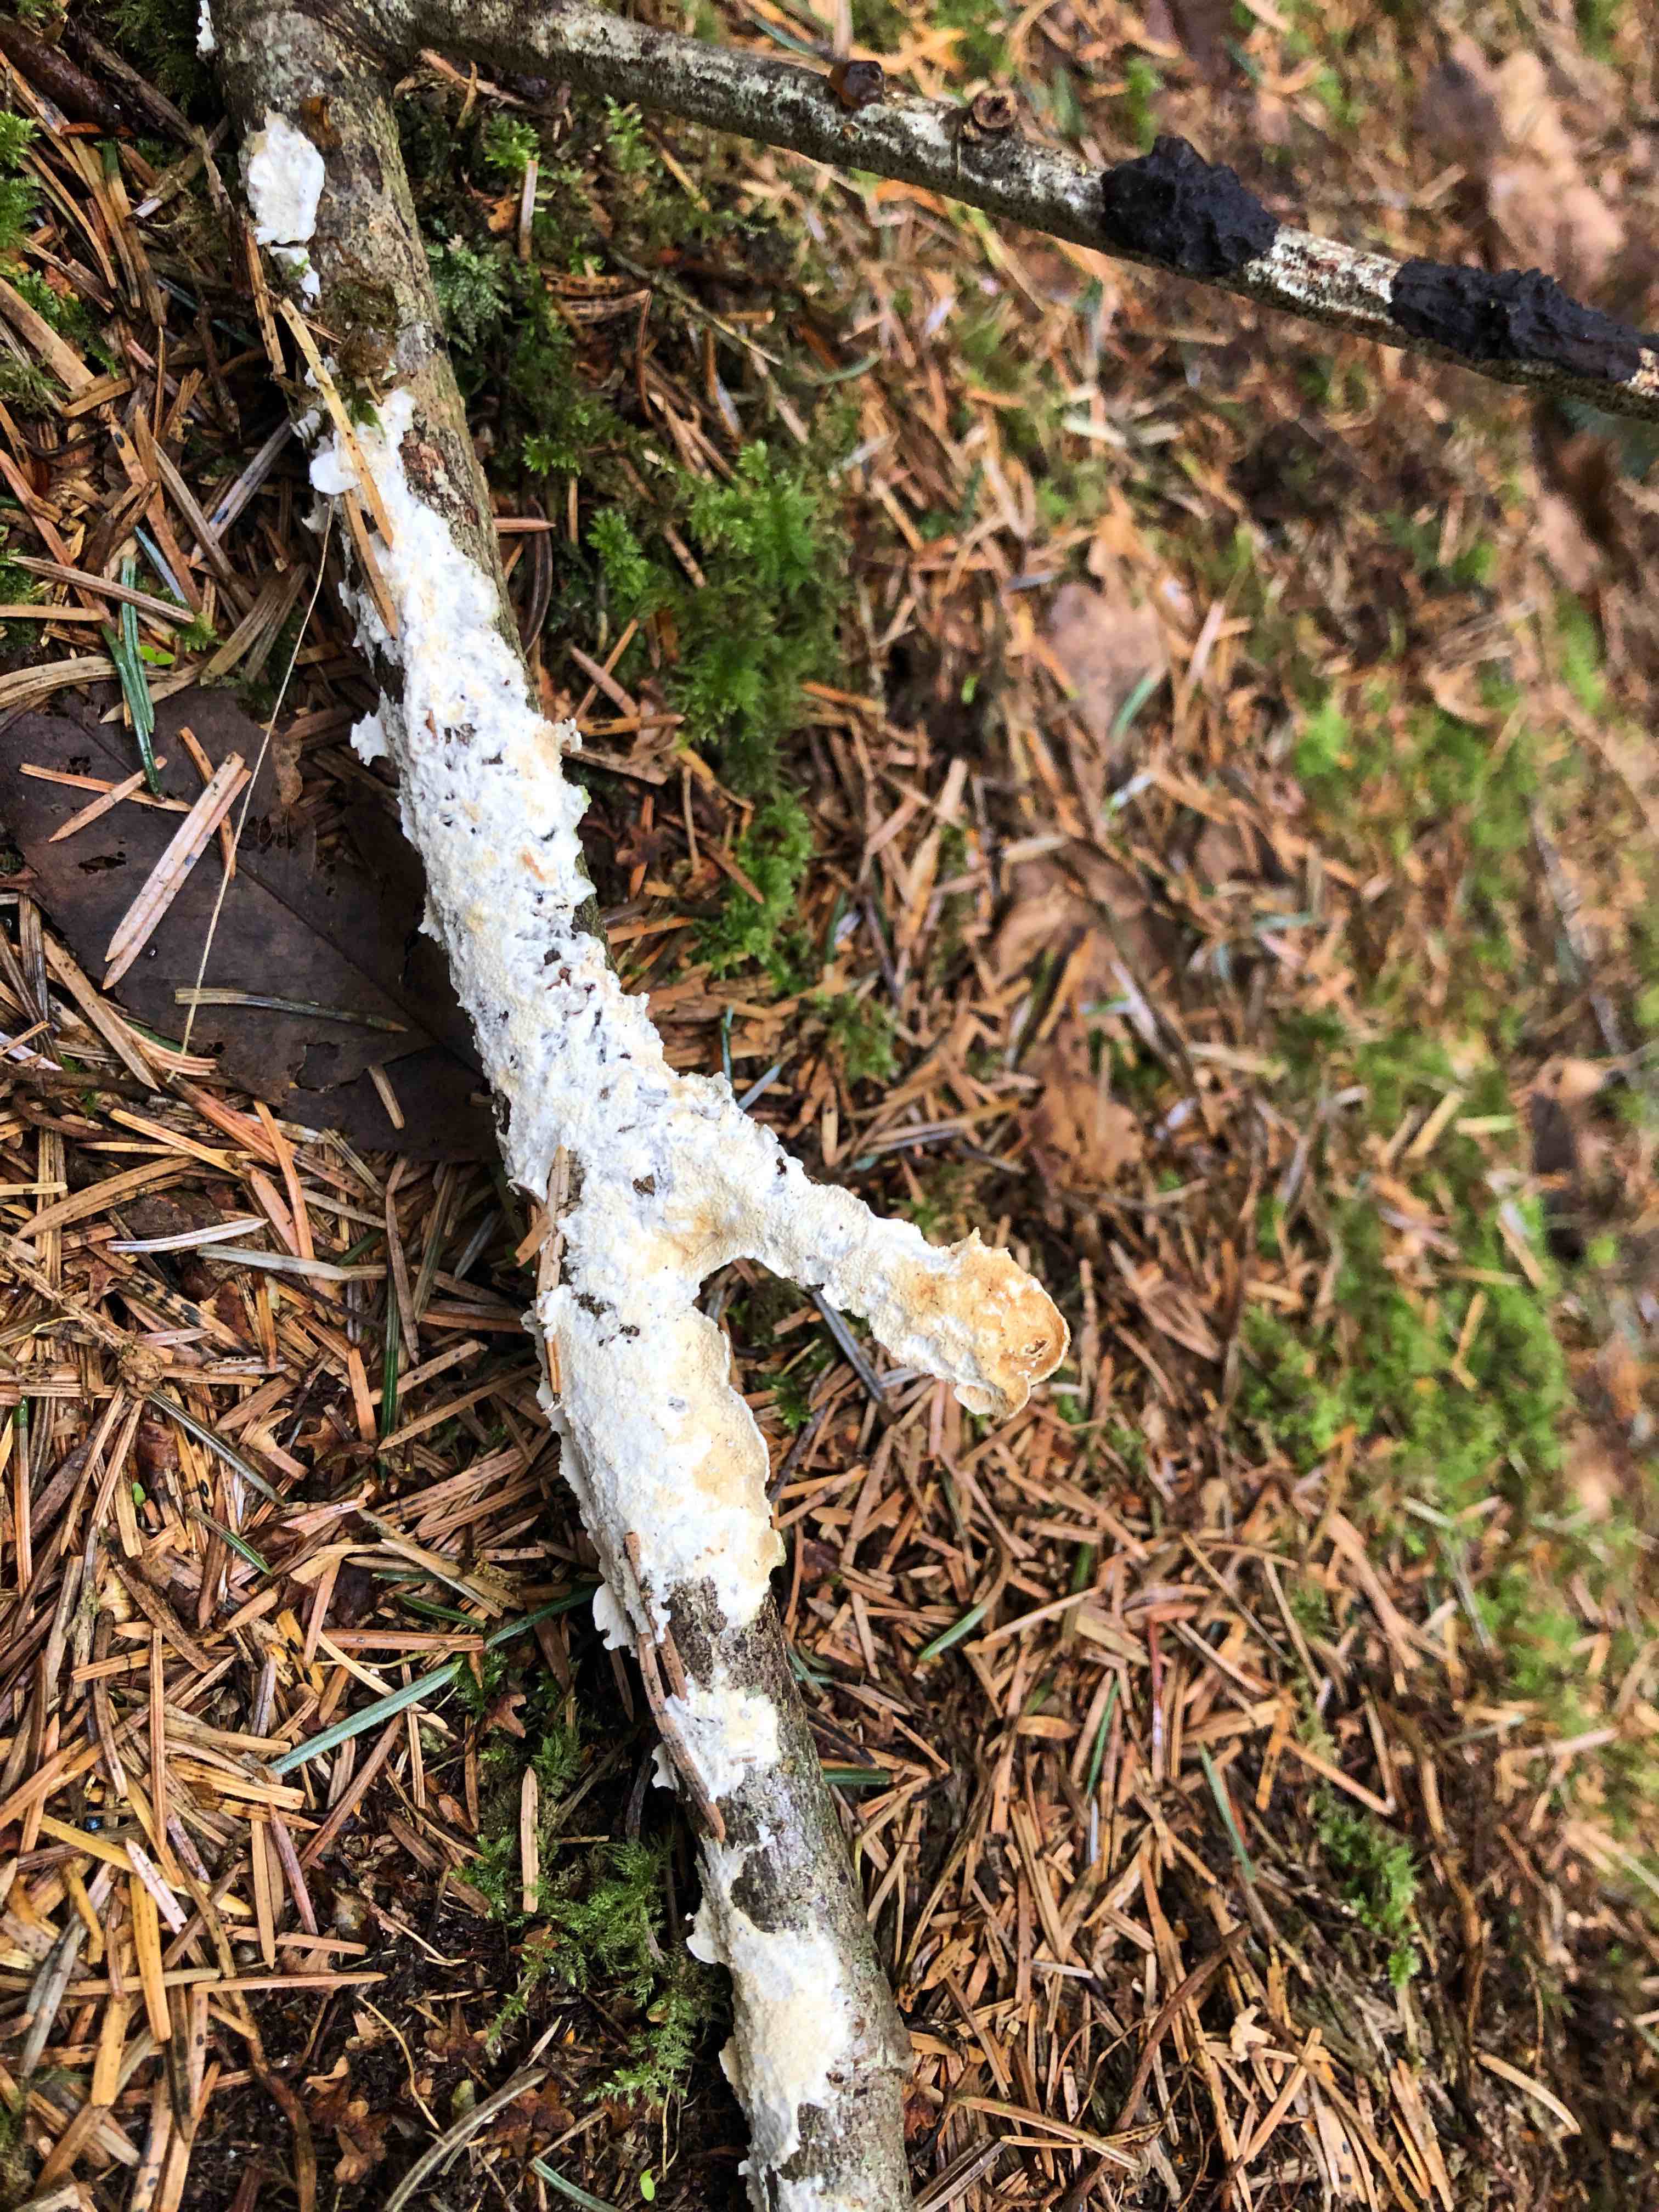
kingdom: Fungi
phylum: Basidiomycota
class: Agaricomycetes
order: Polyporales
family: Irpicaceae
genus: Byssomerulius
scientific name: Byssomerulius corium
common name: læder-åresvamp
